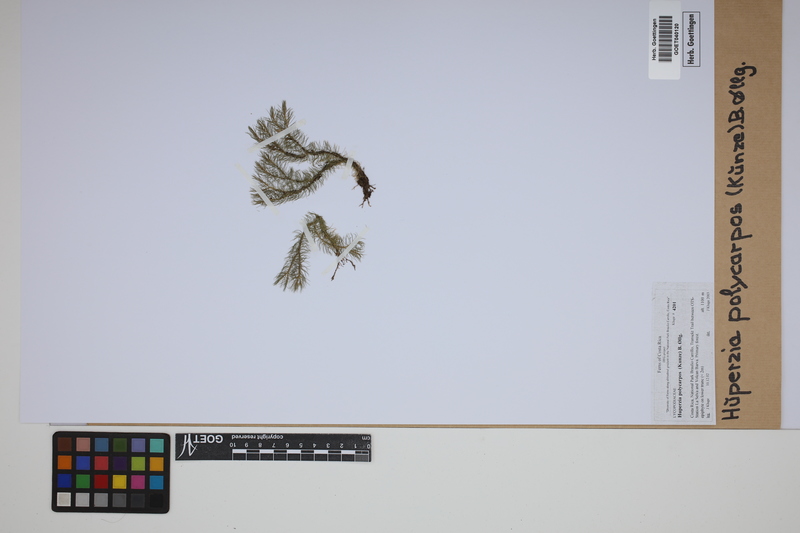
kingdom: Plantae
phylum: Tracheophyta
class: Lycopodiopsida
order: Lycopodiales
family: Lycopodiaceae
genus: Phlegmariurus
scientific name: Phlegmariurus
